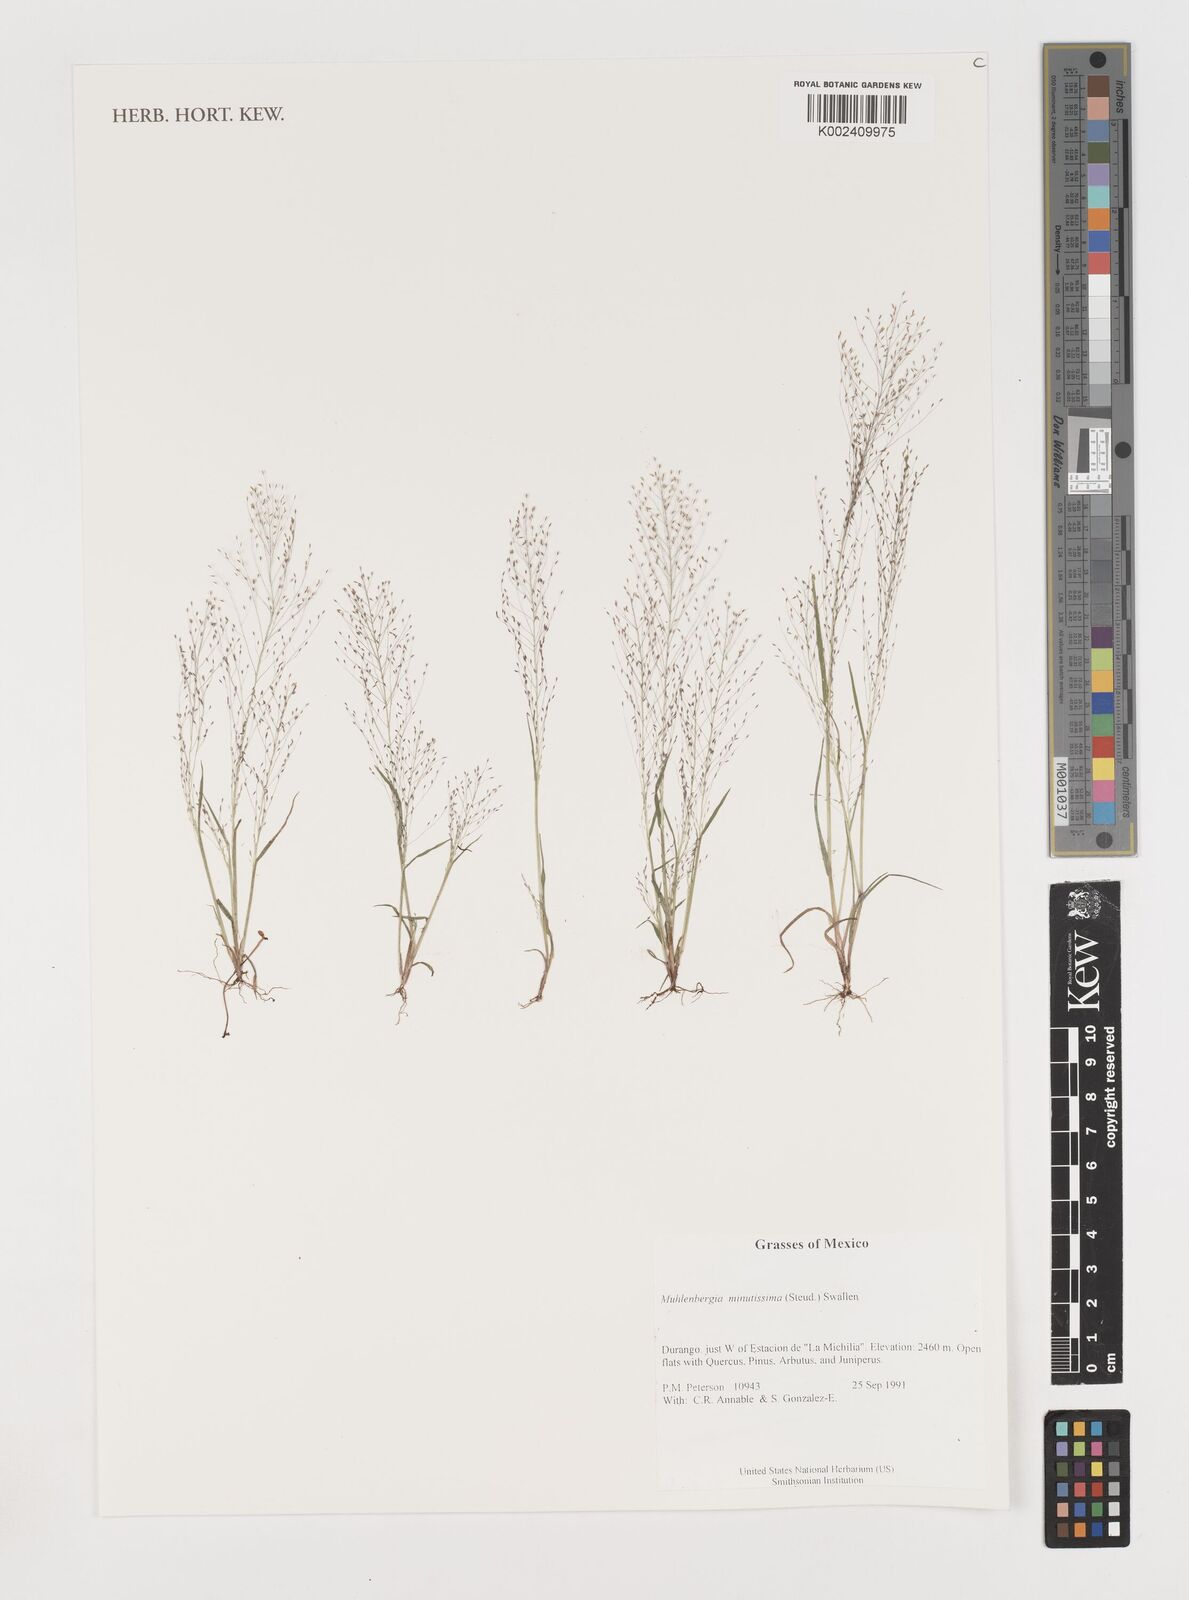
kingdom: Plantae
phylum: Tracheophyta
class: Liliopsida
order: Poales
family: Poaceae
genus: Muhlenbergia
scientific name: Muhlenbergia minutissima
